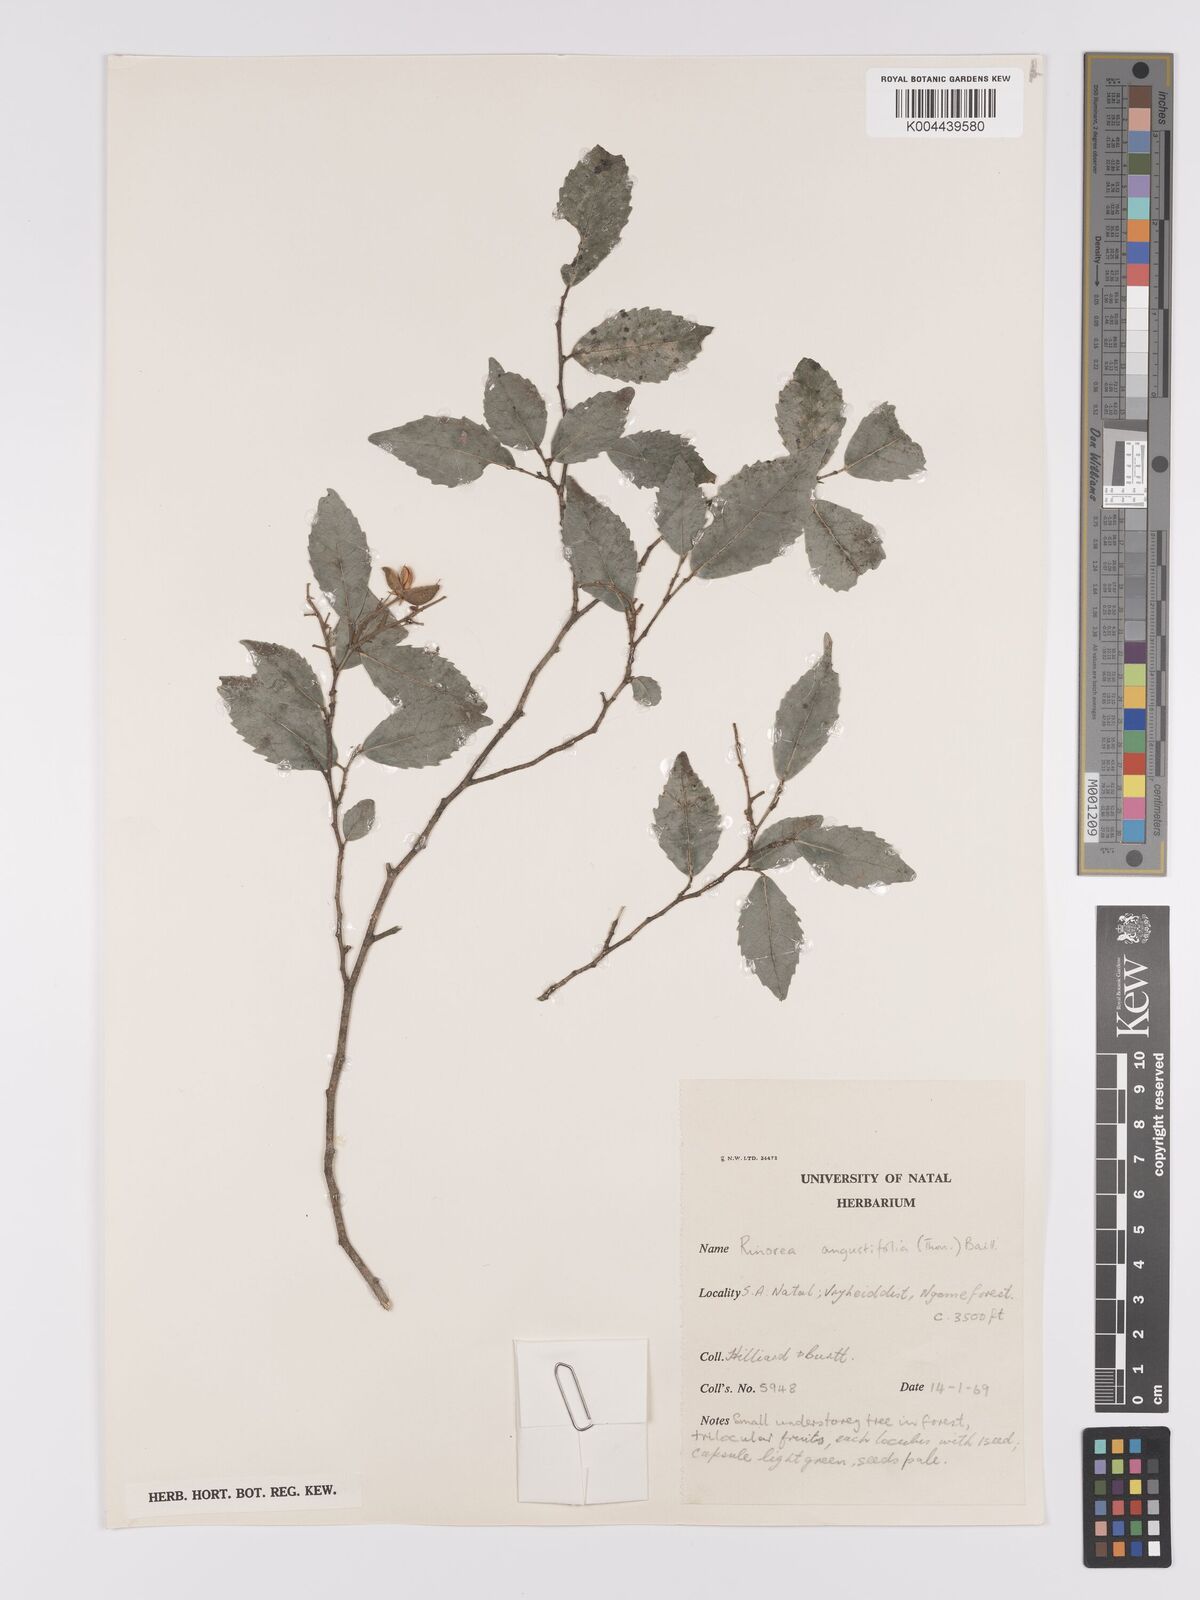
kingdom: Plantae
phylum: Tracheophyta
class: Magnoliopsida
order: Malpighiales
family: Violaceae
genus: Rinorea
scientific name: Rinorea angustifolia
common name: White violet-bush
